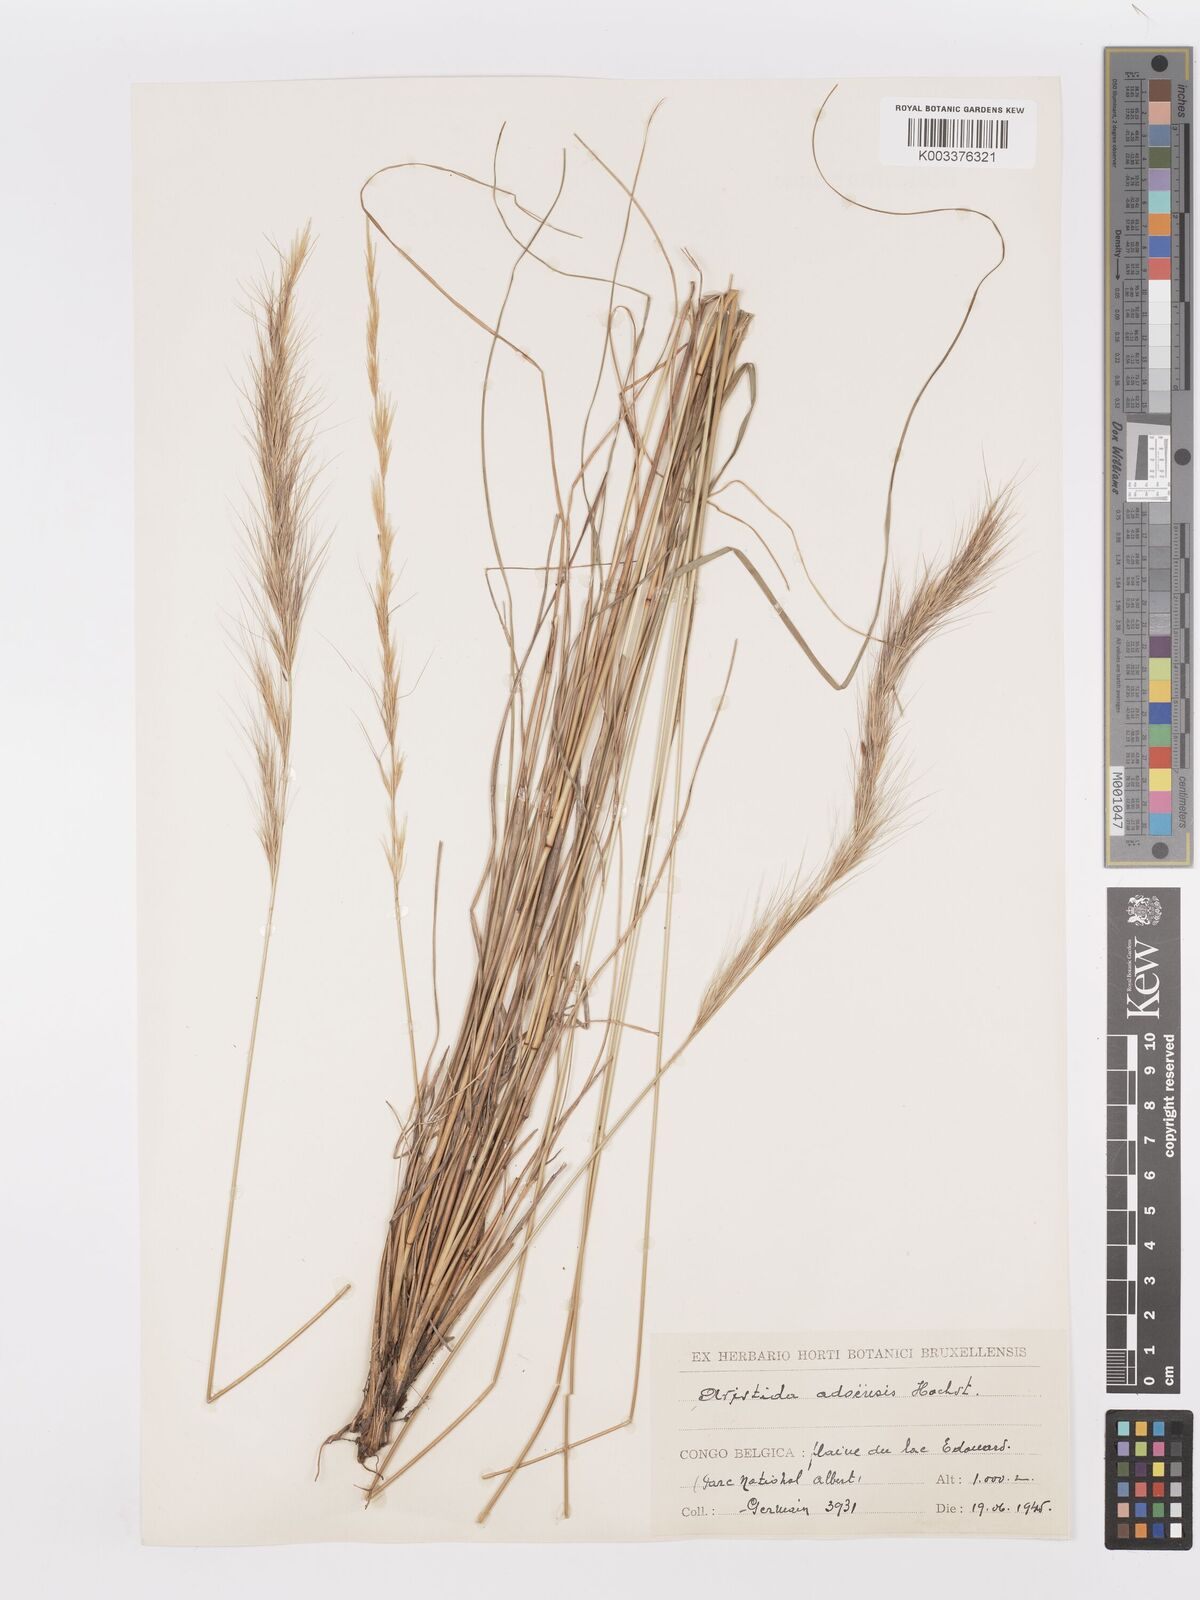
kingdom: Plantae
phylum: Tracheophyta
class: Liliopsida
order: Poales
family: Poaceae
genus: Aristida
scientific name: Aristida adoensis
